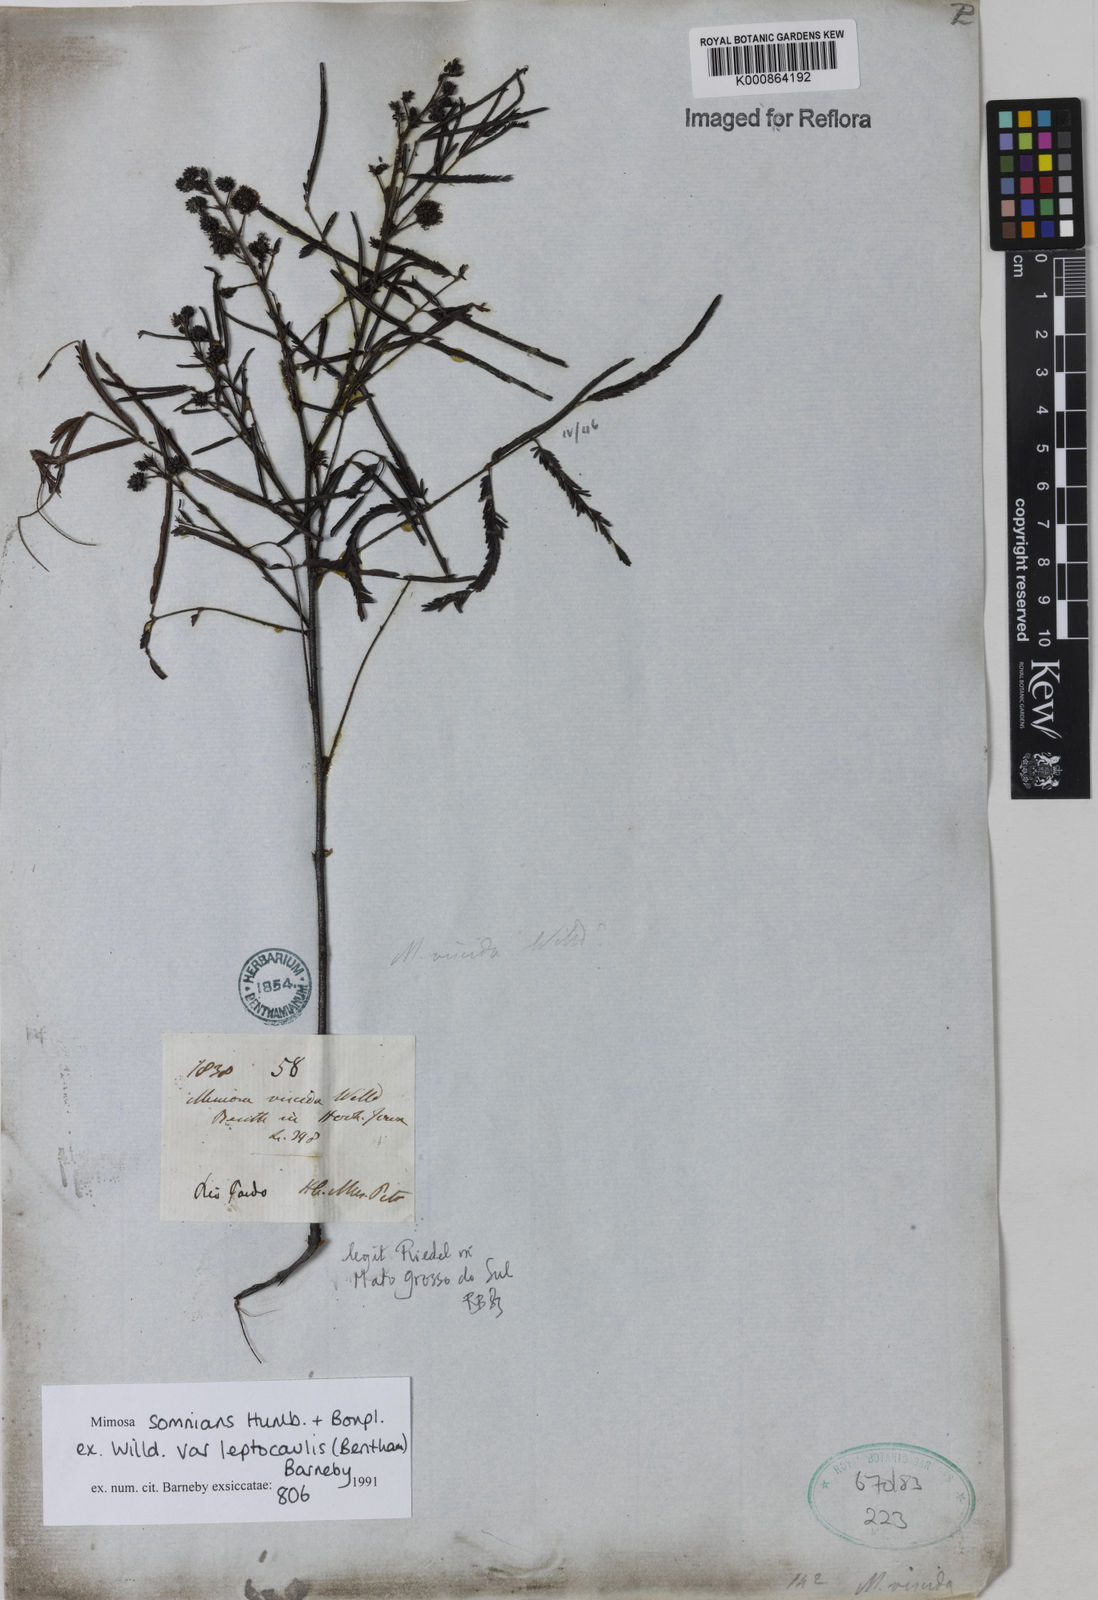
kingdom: Plantae
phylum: Tracheophyta
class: Magnoliopsida
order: Fabales
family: Fabaceae
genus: Mimosa
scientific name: Mimosa somnians
